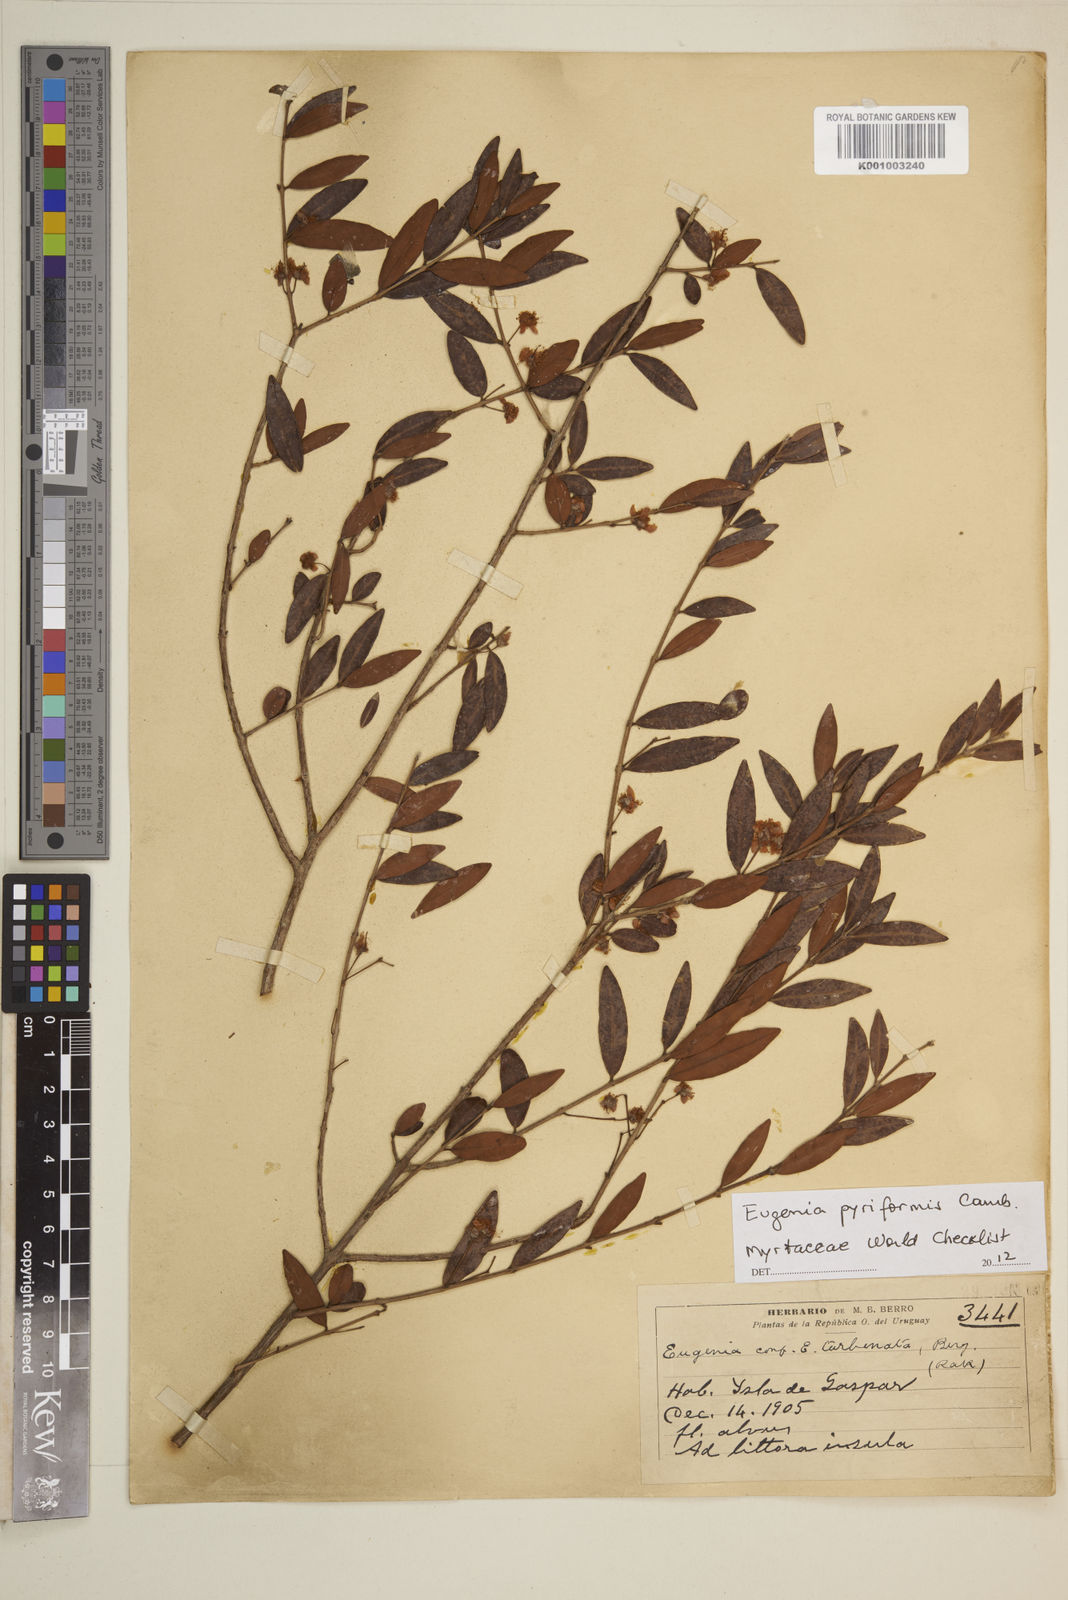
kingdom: Plantae
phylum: Tracheophyta
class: Magnoliopsida
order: Myrtales
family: Myrtaceae
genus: Eugenia
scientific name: Eugenia pyriformis
